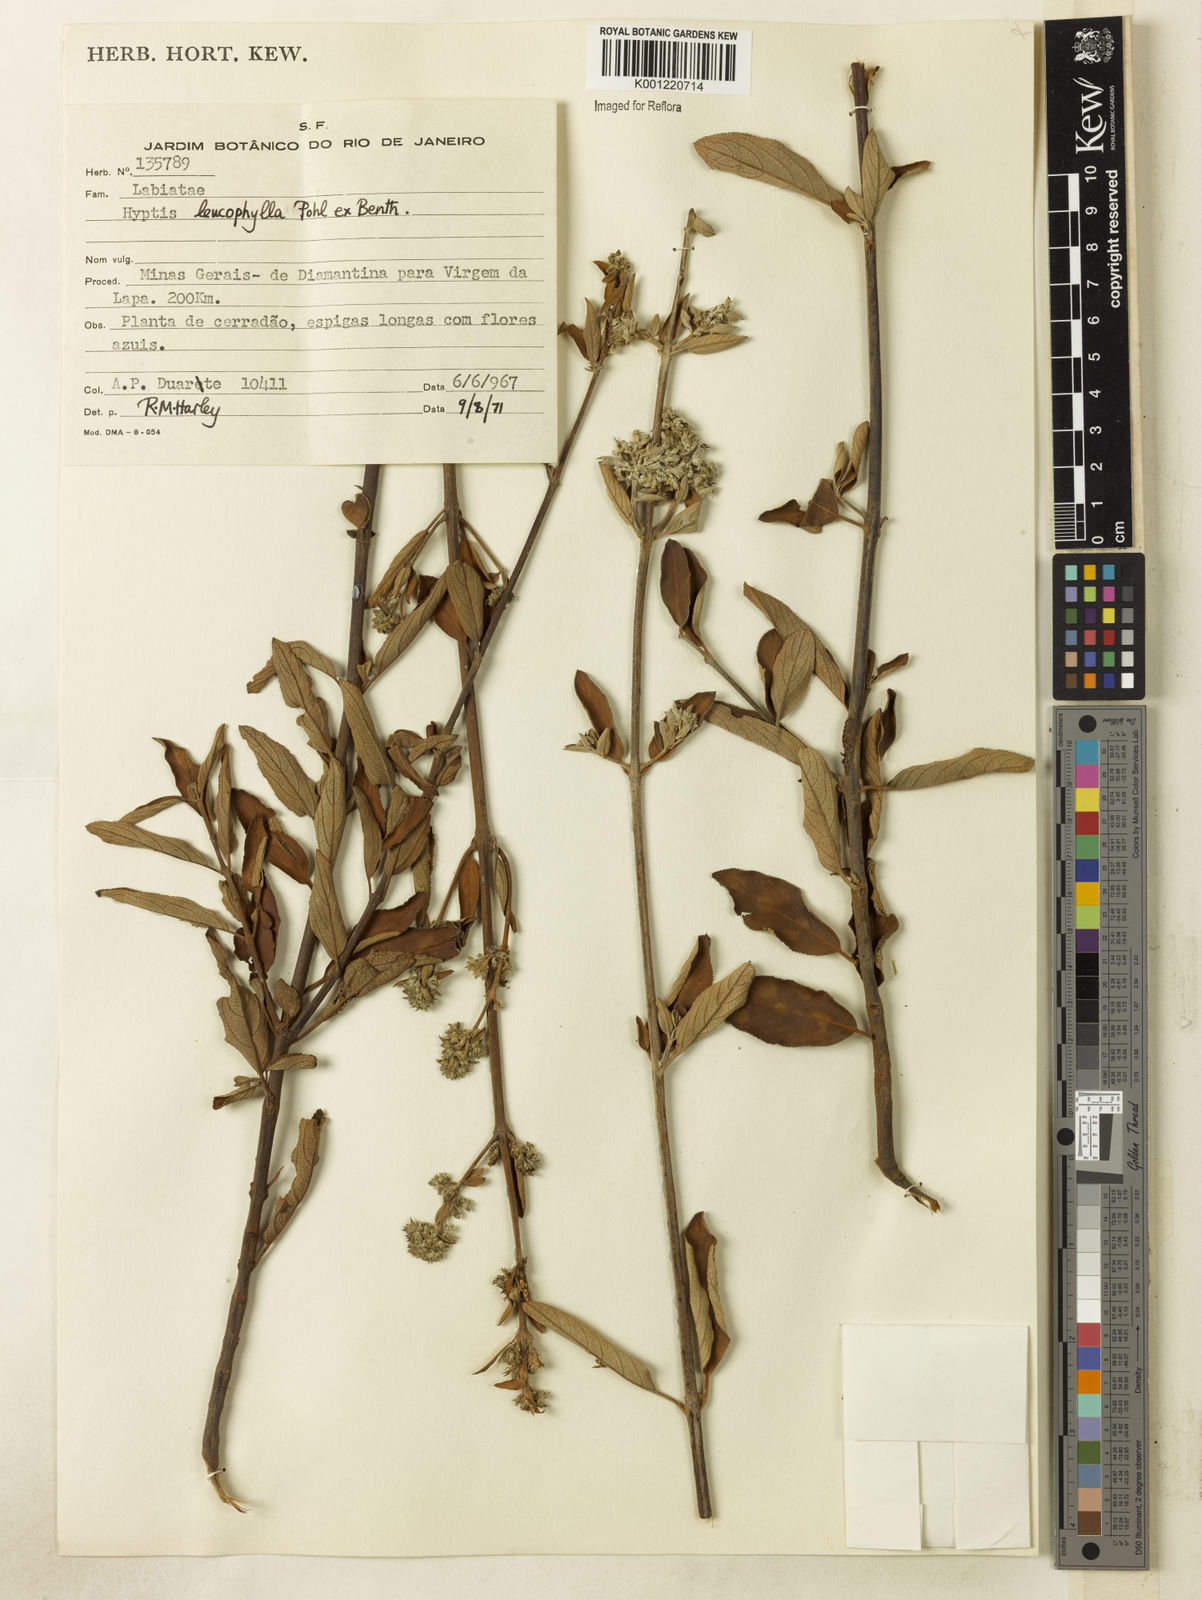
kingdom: Plantae
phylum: Tracheophyta
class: Magnoliopsida
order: Lamiales
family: Lamiaceae
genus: Hyptidendron
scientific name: Hyptidendron leucophyllum
